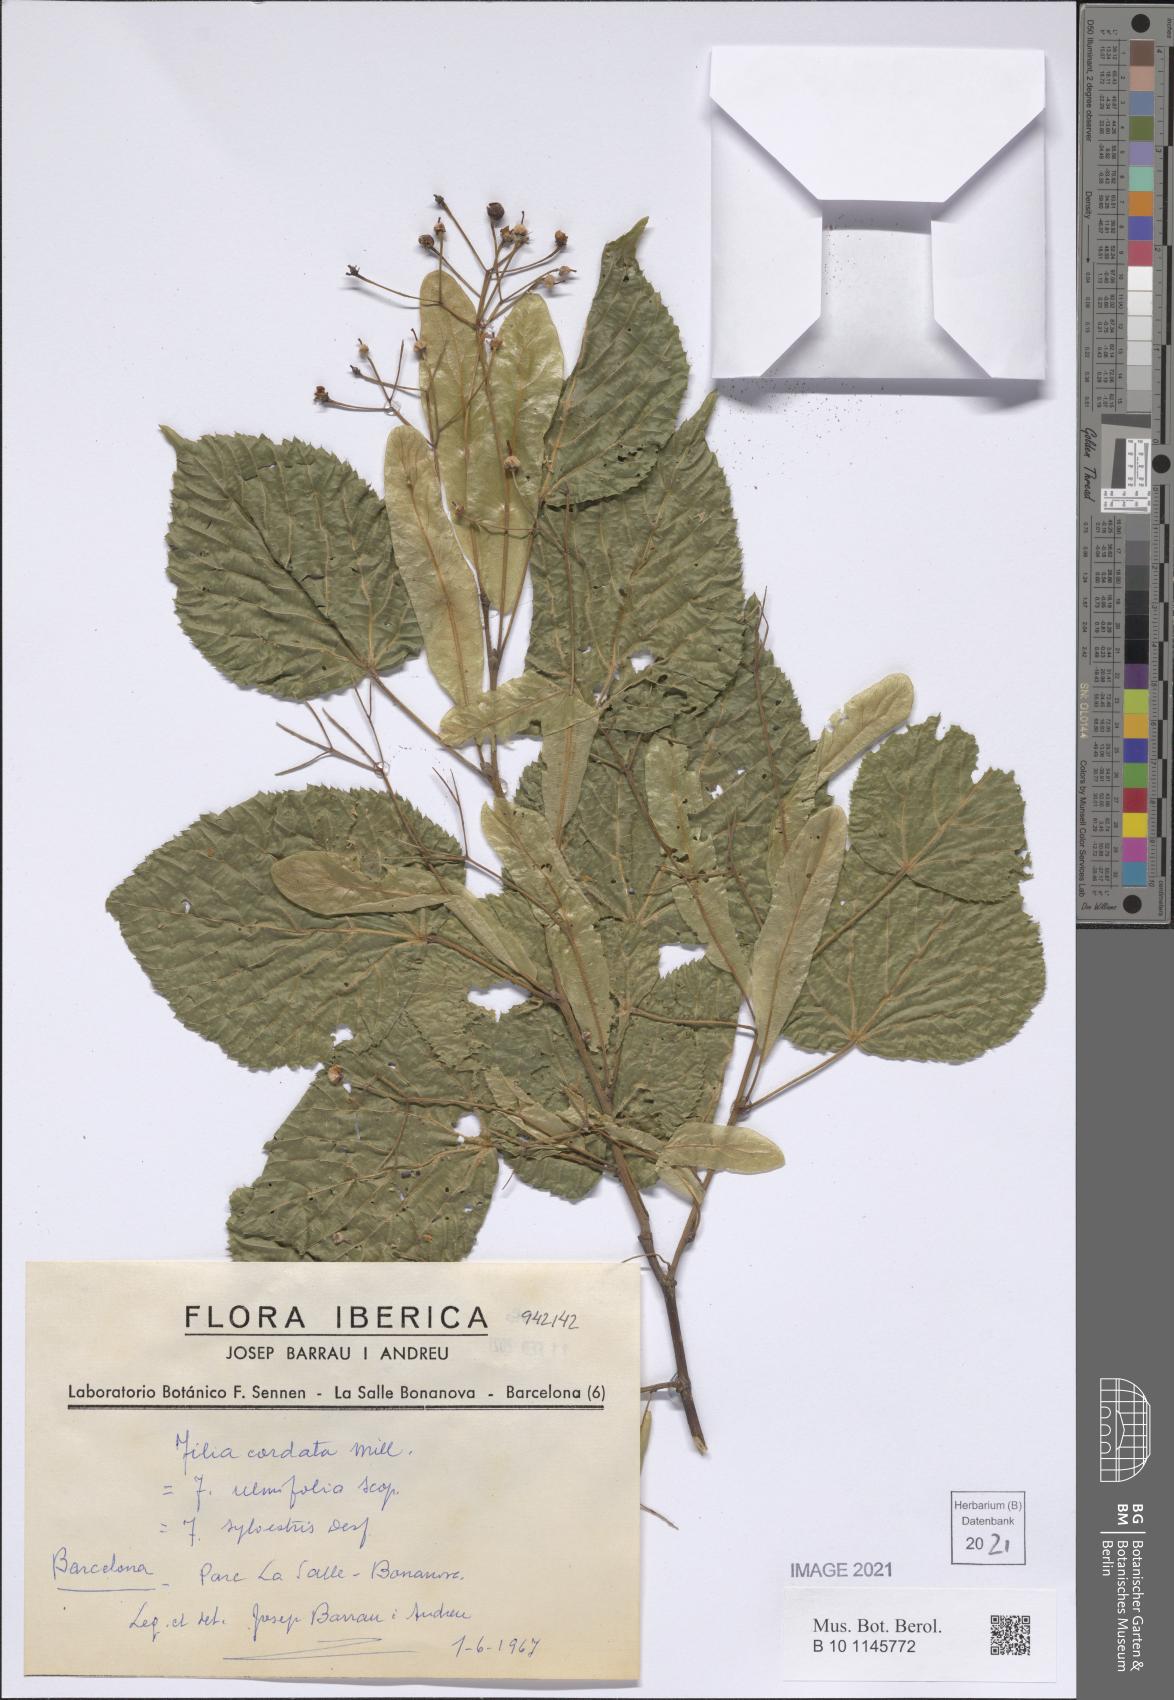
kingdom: Plantae
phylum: Tracheophyta
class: Magnoliopsida
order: Malvales
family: Malvaceae
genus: Tilia
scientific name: Tilia cordata
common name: Small-leaved lime
